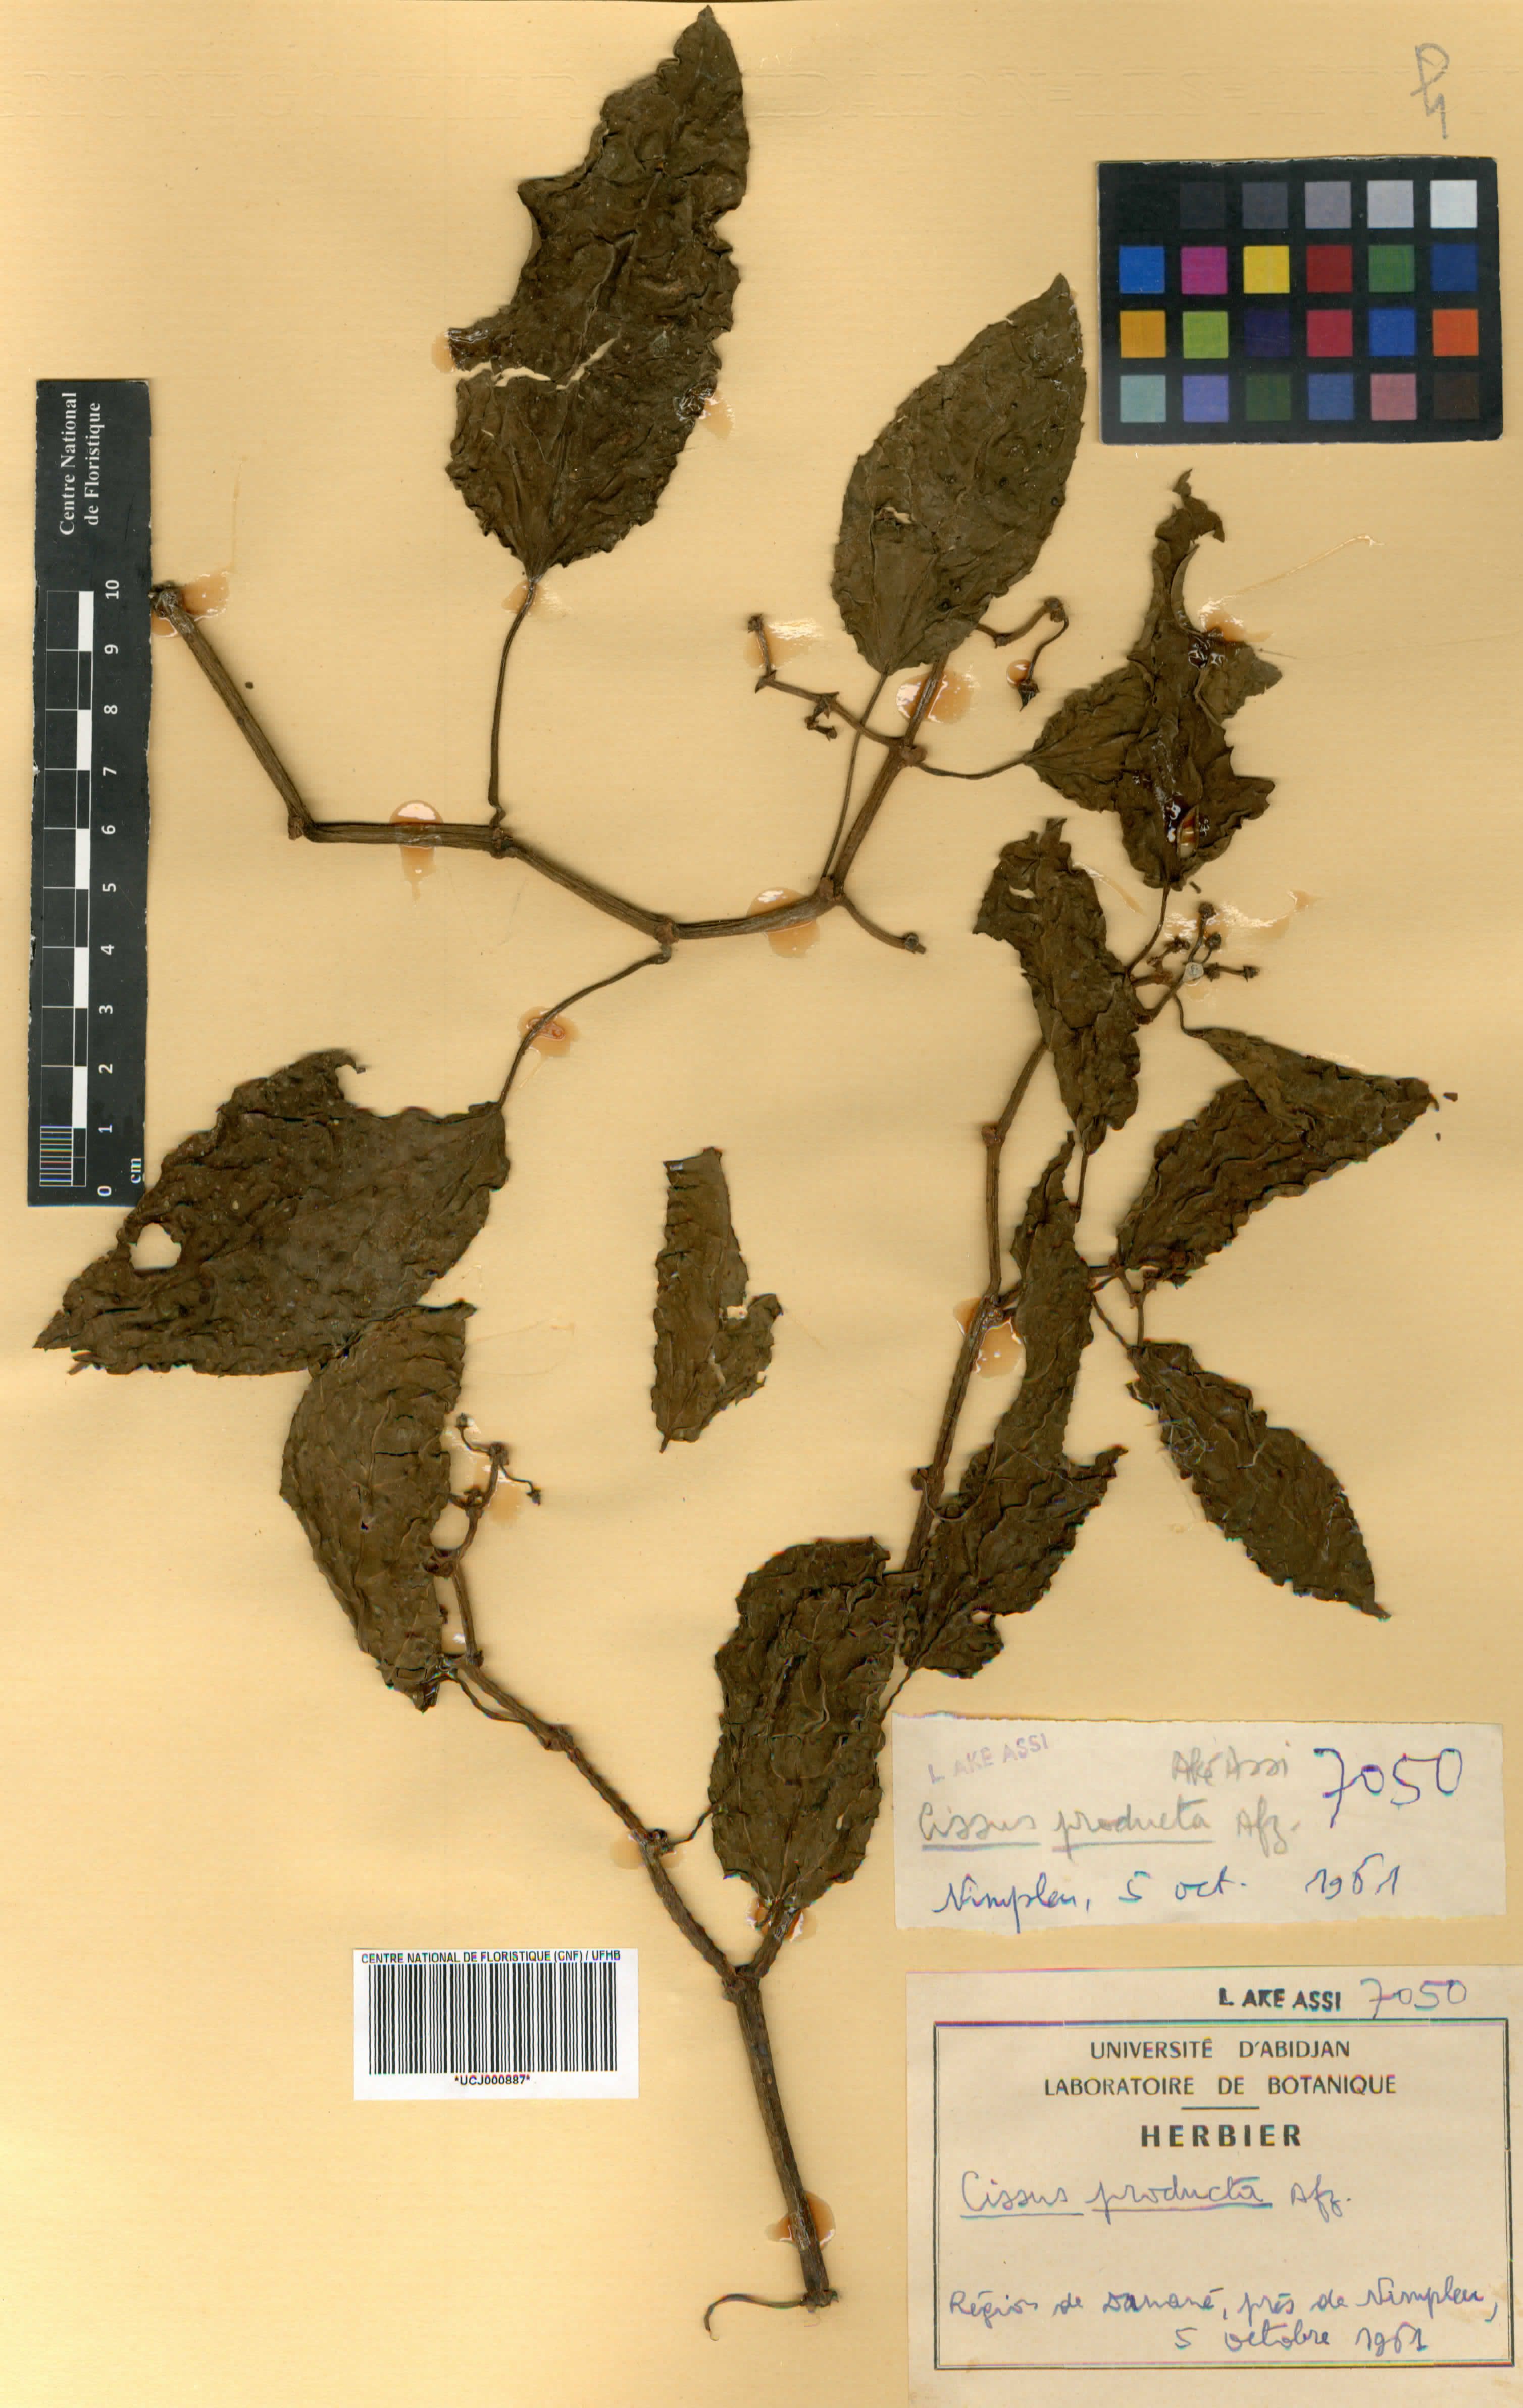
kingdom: Plantae
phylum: Tracheophyta
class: Magnoliopsida
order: Vitales
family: Vitaceae
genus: Cissus
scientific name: Cissus producta
